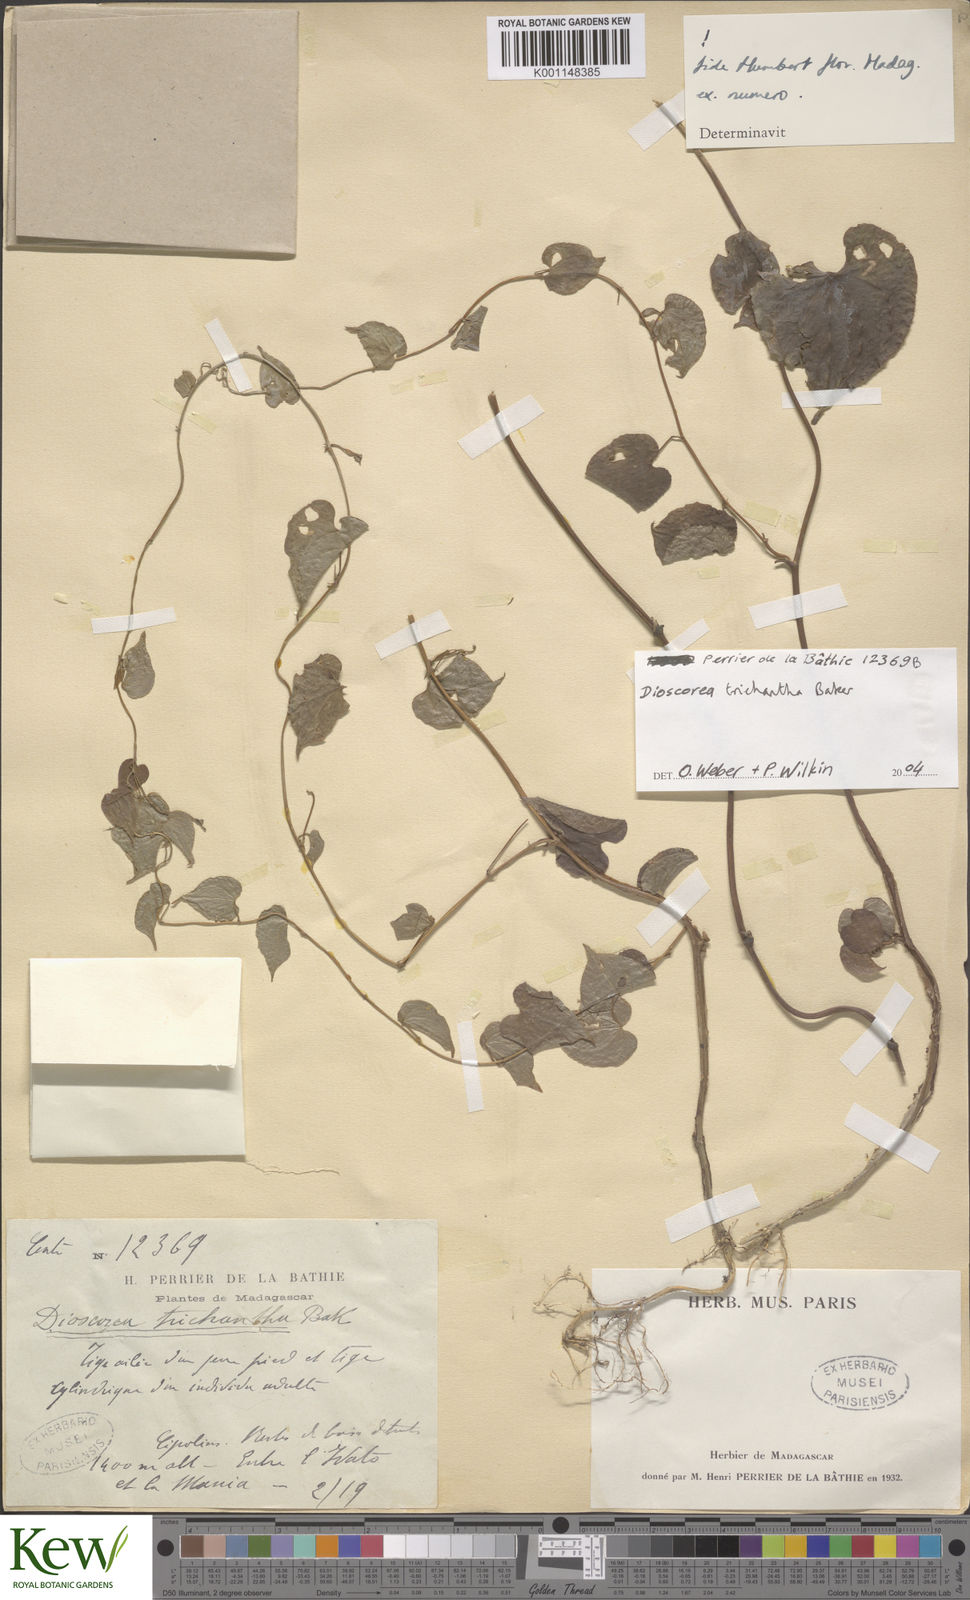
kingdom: Plantae
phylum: Tracheophyta
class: Liliopsida
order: Dioscoreales
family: Dioscoreaceae
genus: Dioscorea
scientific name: Dioscorea sterilis
